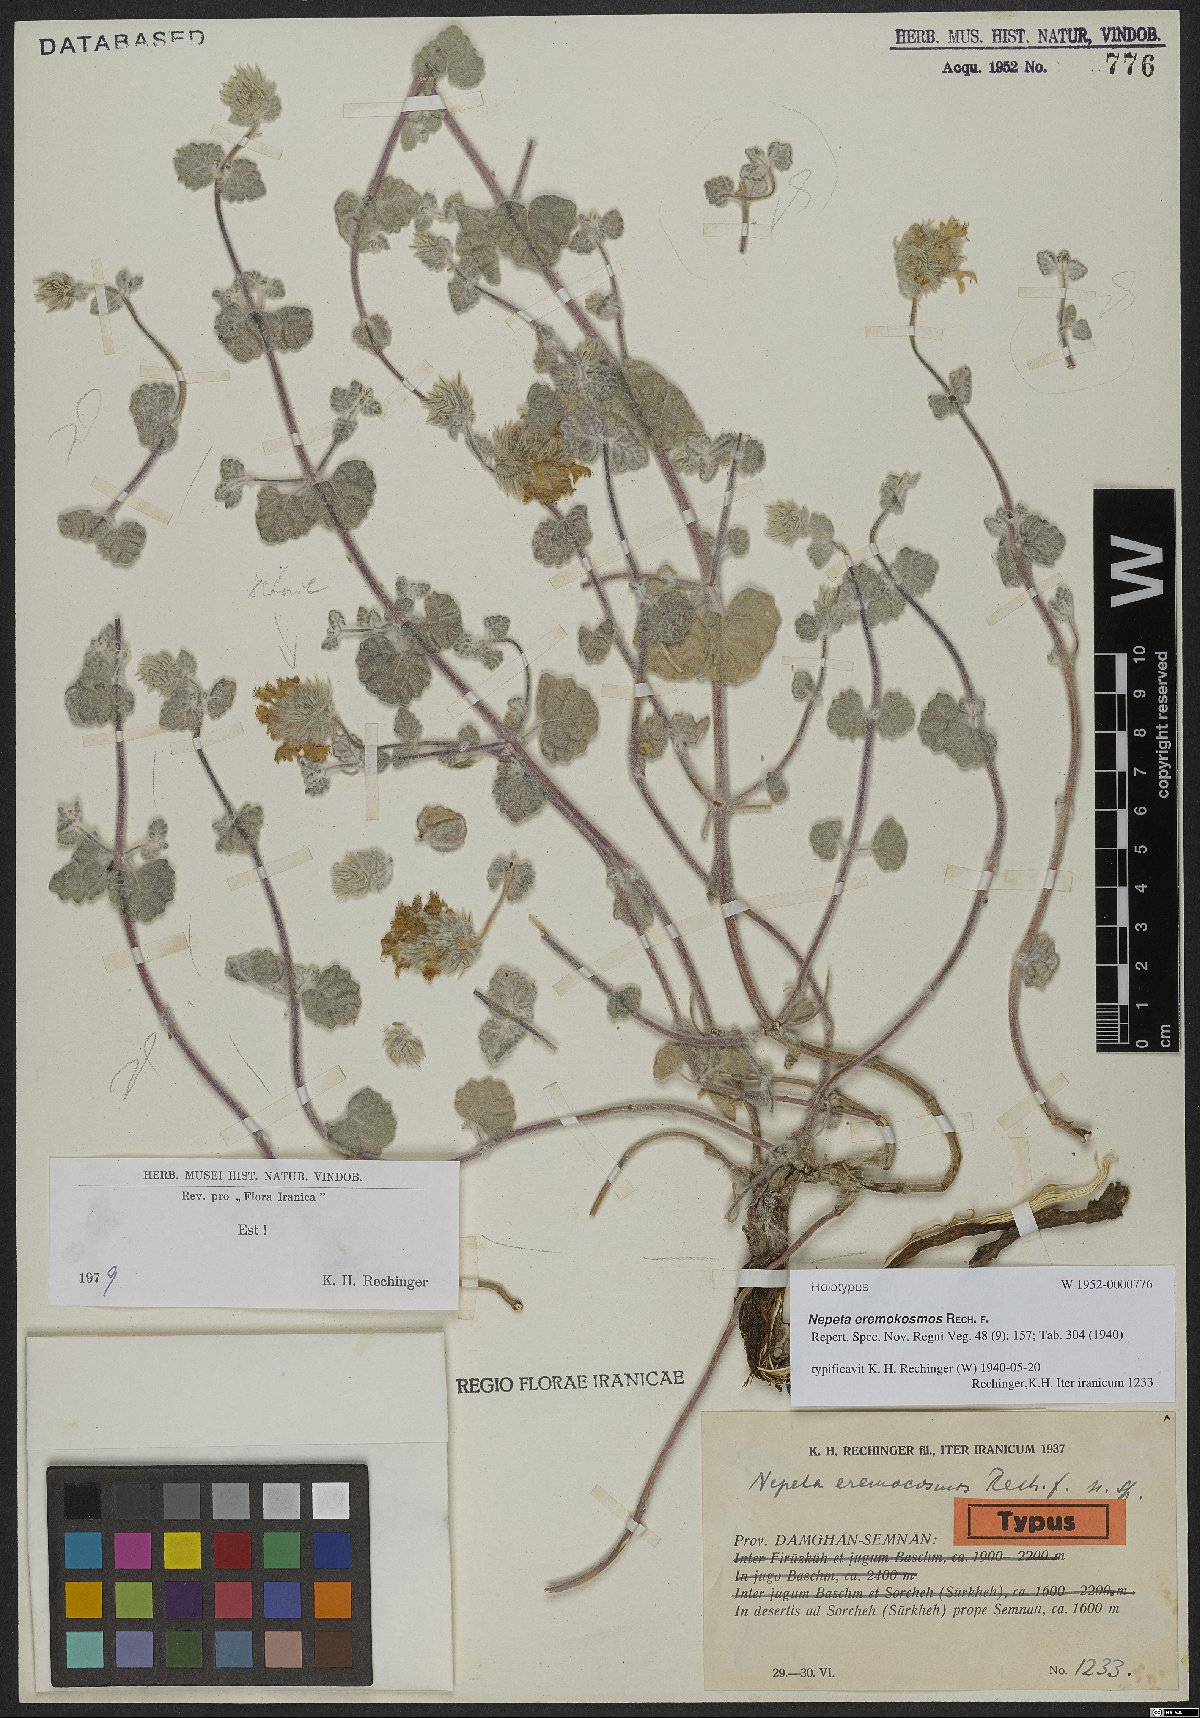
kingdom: Plantae
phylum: Tracheophyta
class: Magnoliopsida
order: Lamiales
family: Lamiaceae
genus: Nepeta
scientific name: Nepeta eremokosmos
